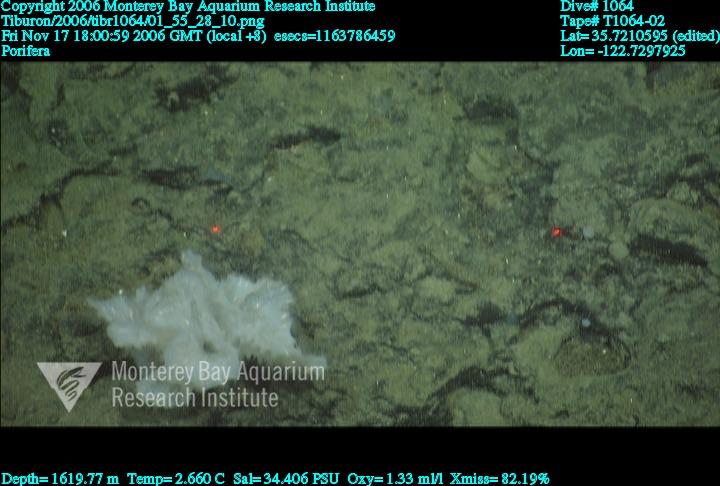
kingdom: Animalia
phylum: Porifera
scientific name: Porifera
